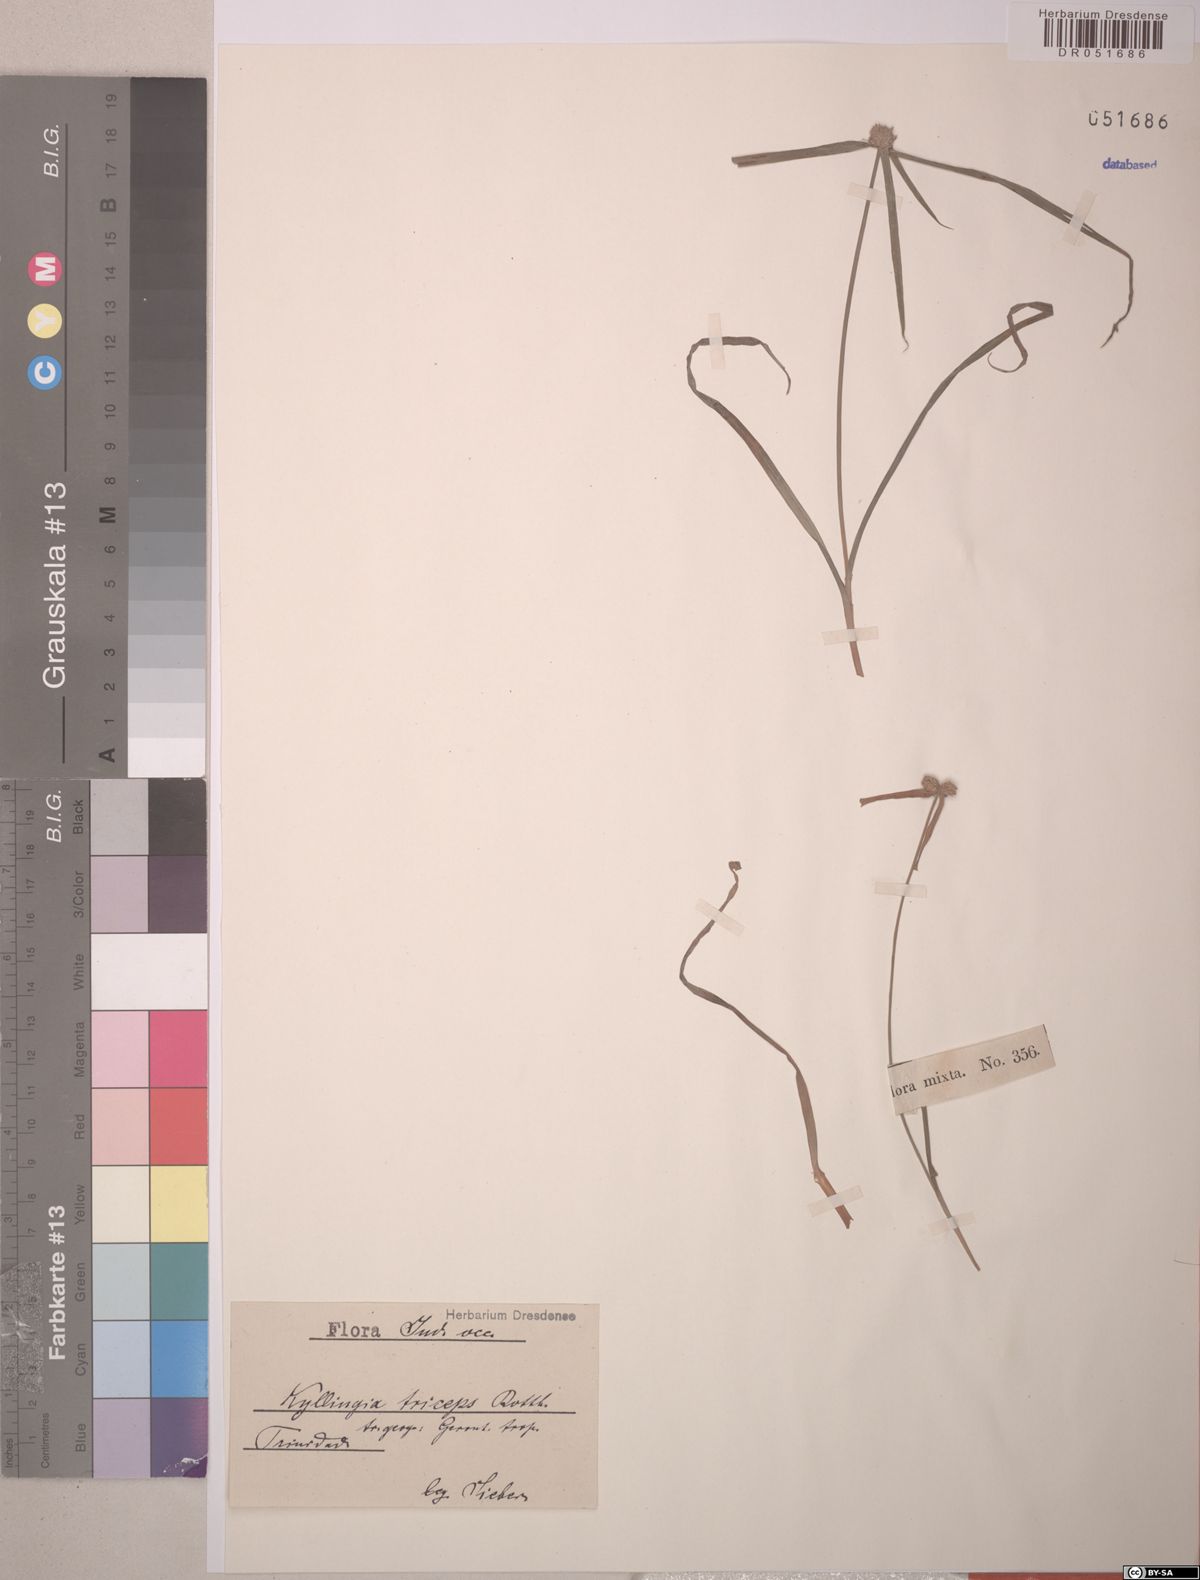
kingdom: Plantae
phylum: Tracheophyta
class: Liliopsida
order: Poales
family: Cyperaceae
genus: Cyperus
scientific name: Cyperus dubius
